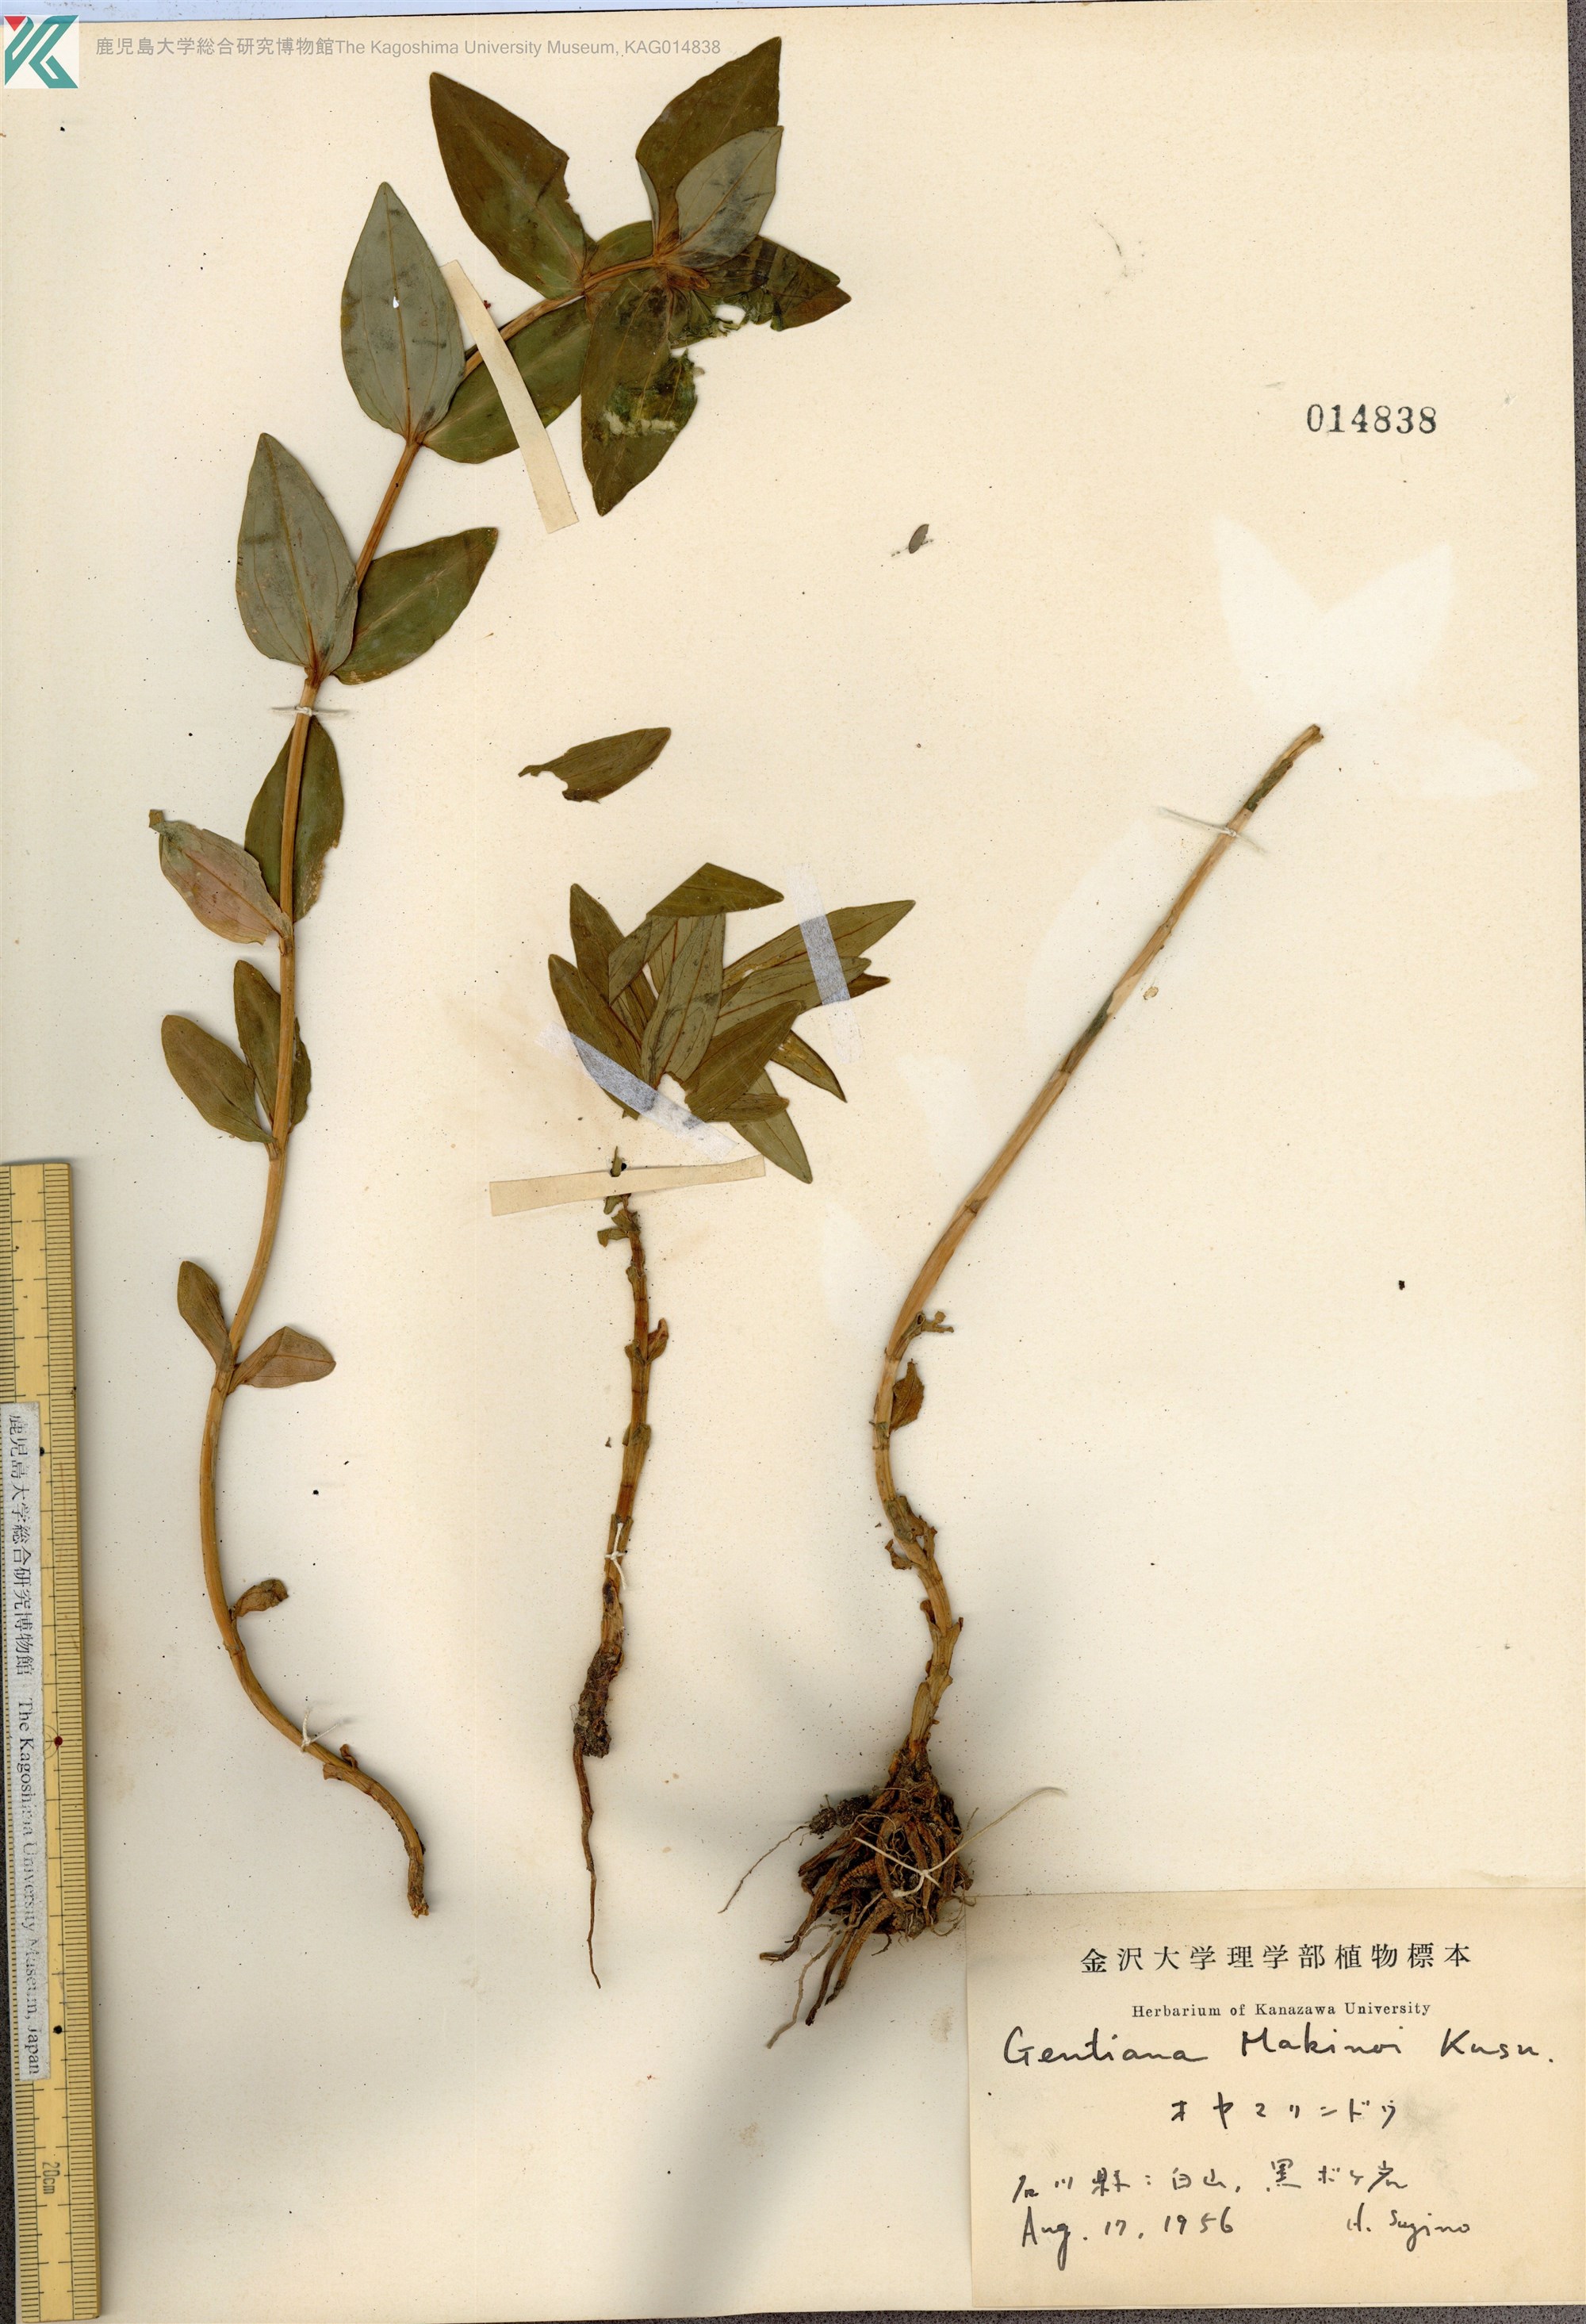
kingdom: Plantae
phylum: Tracheophyta
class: Magnoliopsida
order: Gentianales
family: Gentianaceae
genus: Gentiana
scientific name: Gentiana makinoi
